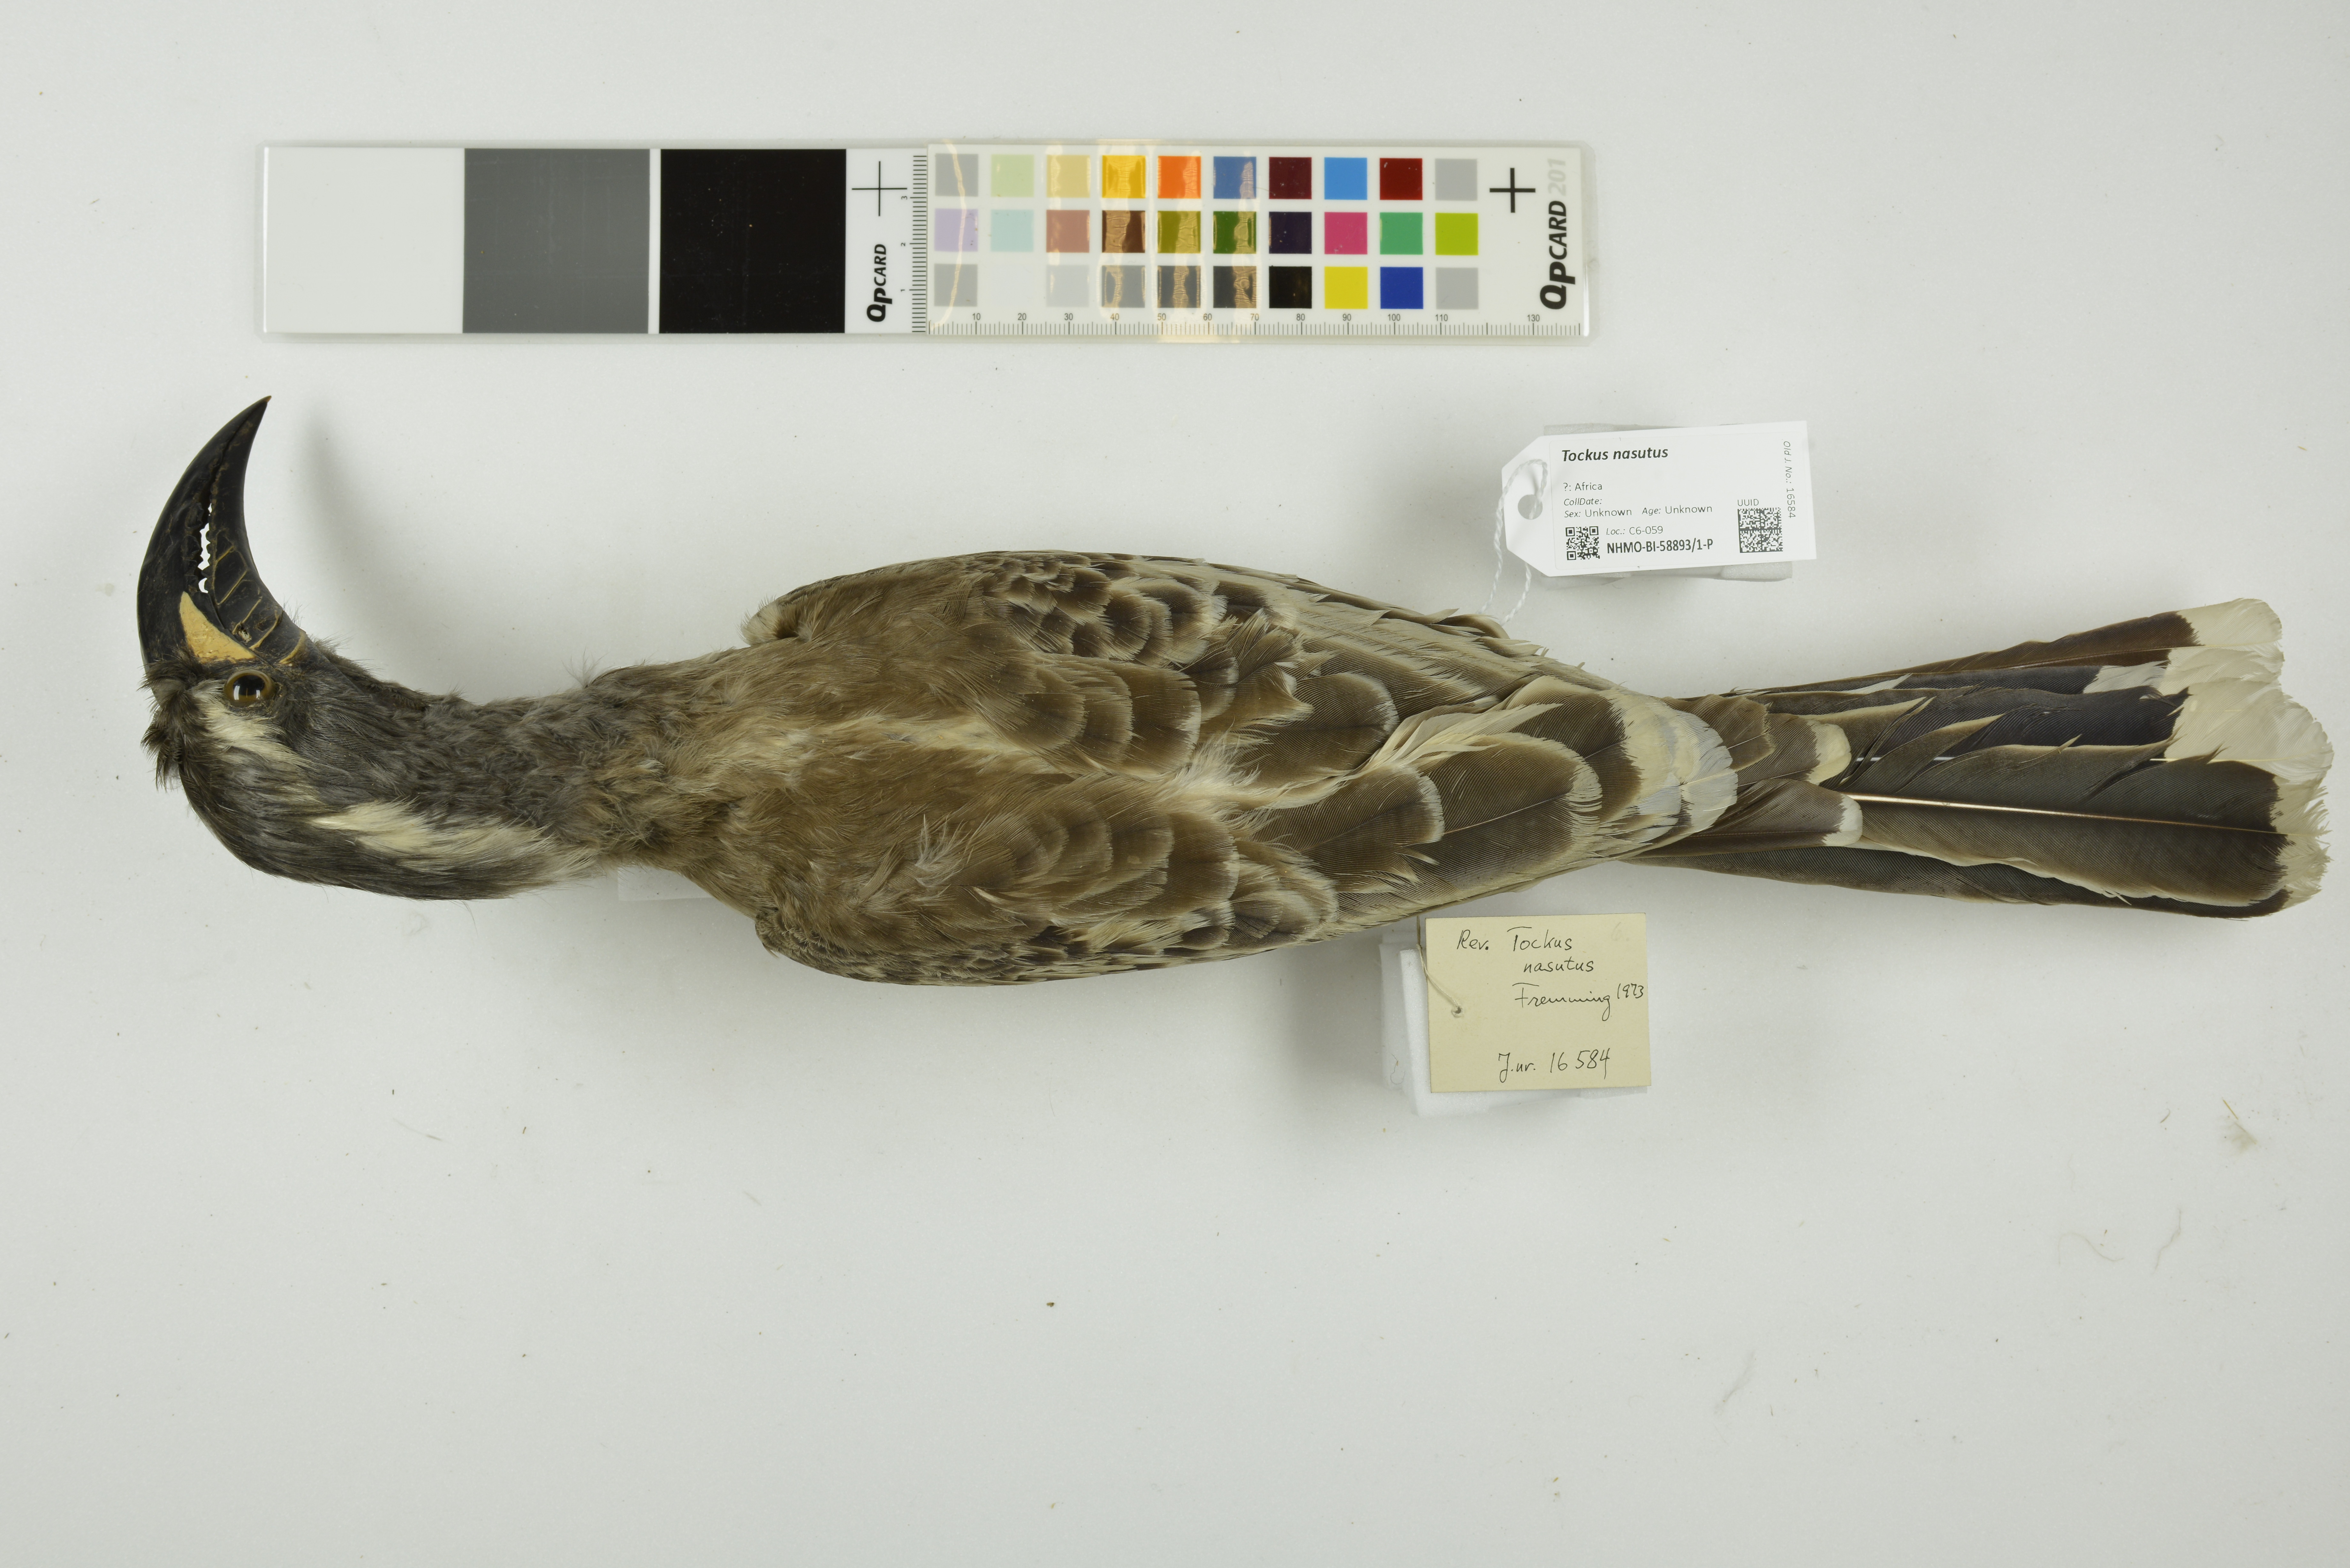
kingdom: Animalia
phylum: Chordata
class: Aves
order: Bucerotiformes
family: Bucerotidae
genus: Lophoceros
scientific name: Lophoceros nasutus
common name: African grey hornbill
